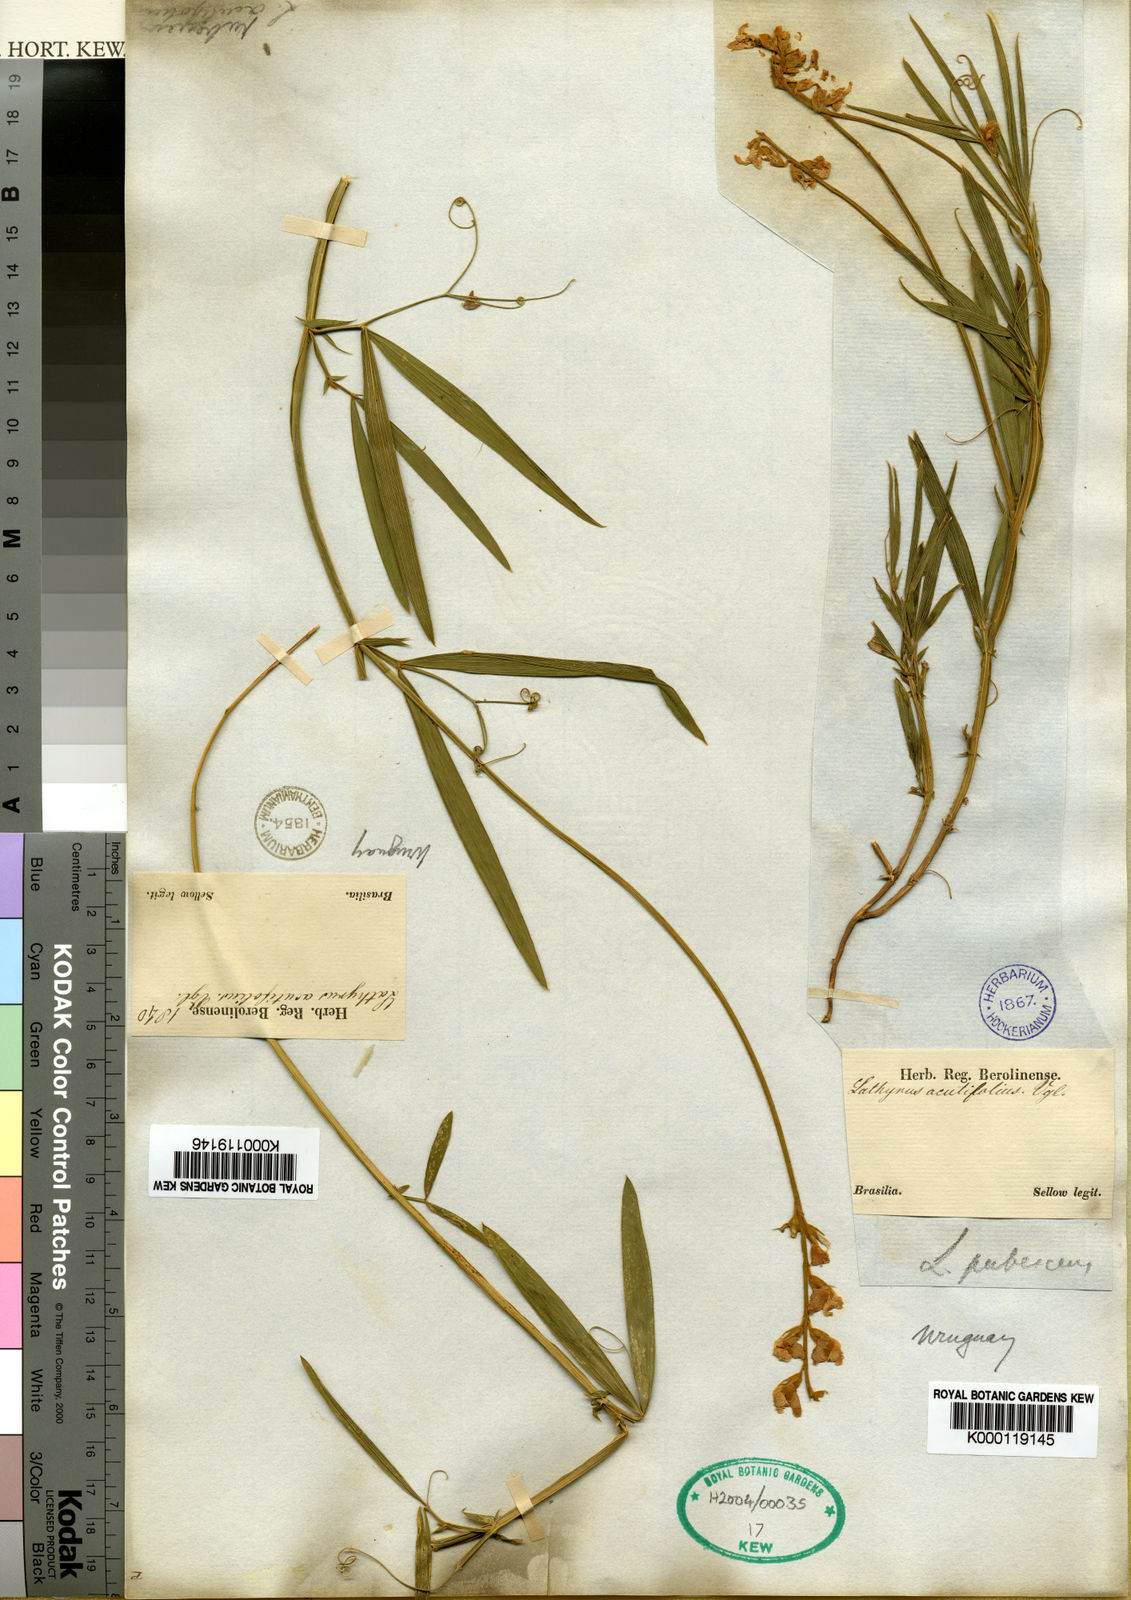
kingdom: Plantae
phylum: Tracheophyta
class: Magnoliopsida
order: Fabales
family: Fabaceae
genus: Lathyrus
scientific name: Lathyrus pubescens
